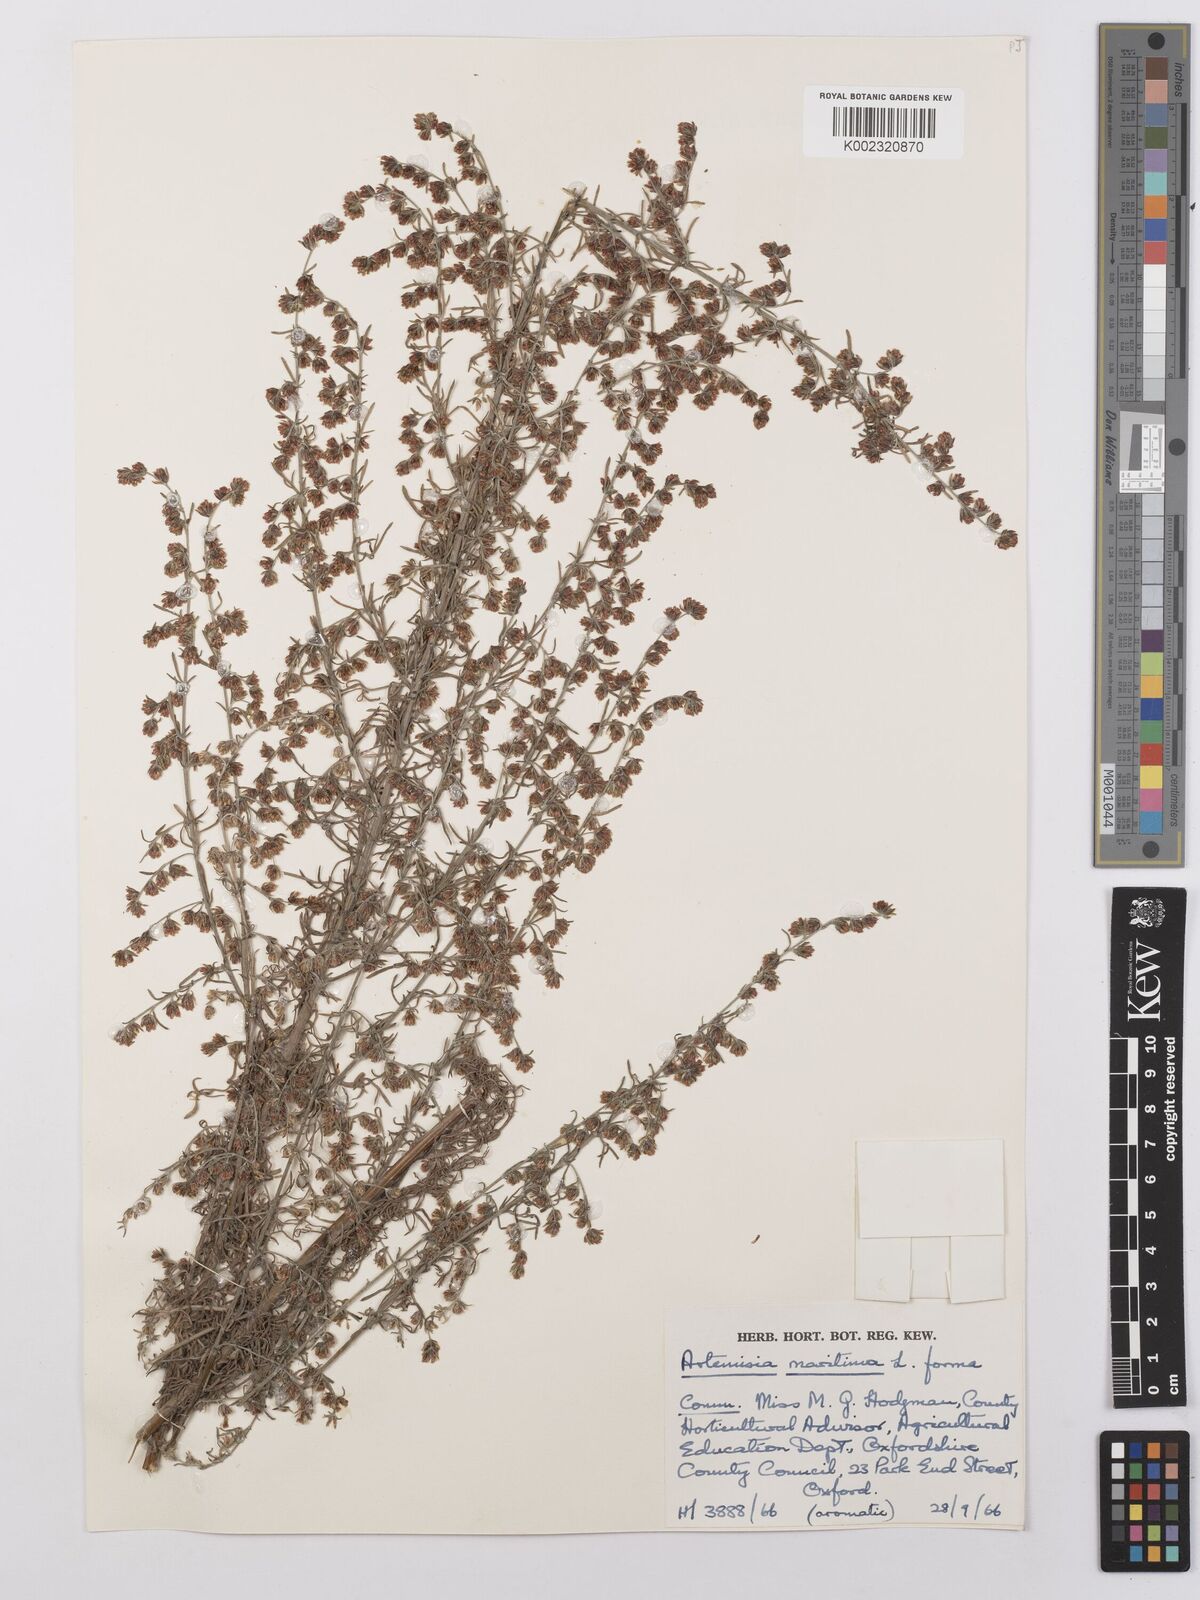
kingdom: Plantae
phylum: Tracheophyta
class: Magnoliopsida
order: Asterales
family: Asteraceae
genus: Artemisia
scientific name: Artemisia maritima
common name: Wormseed
